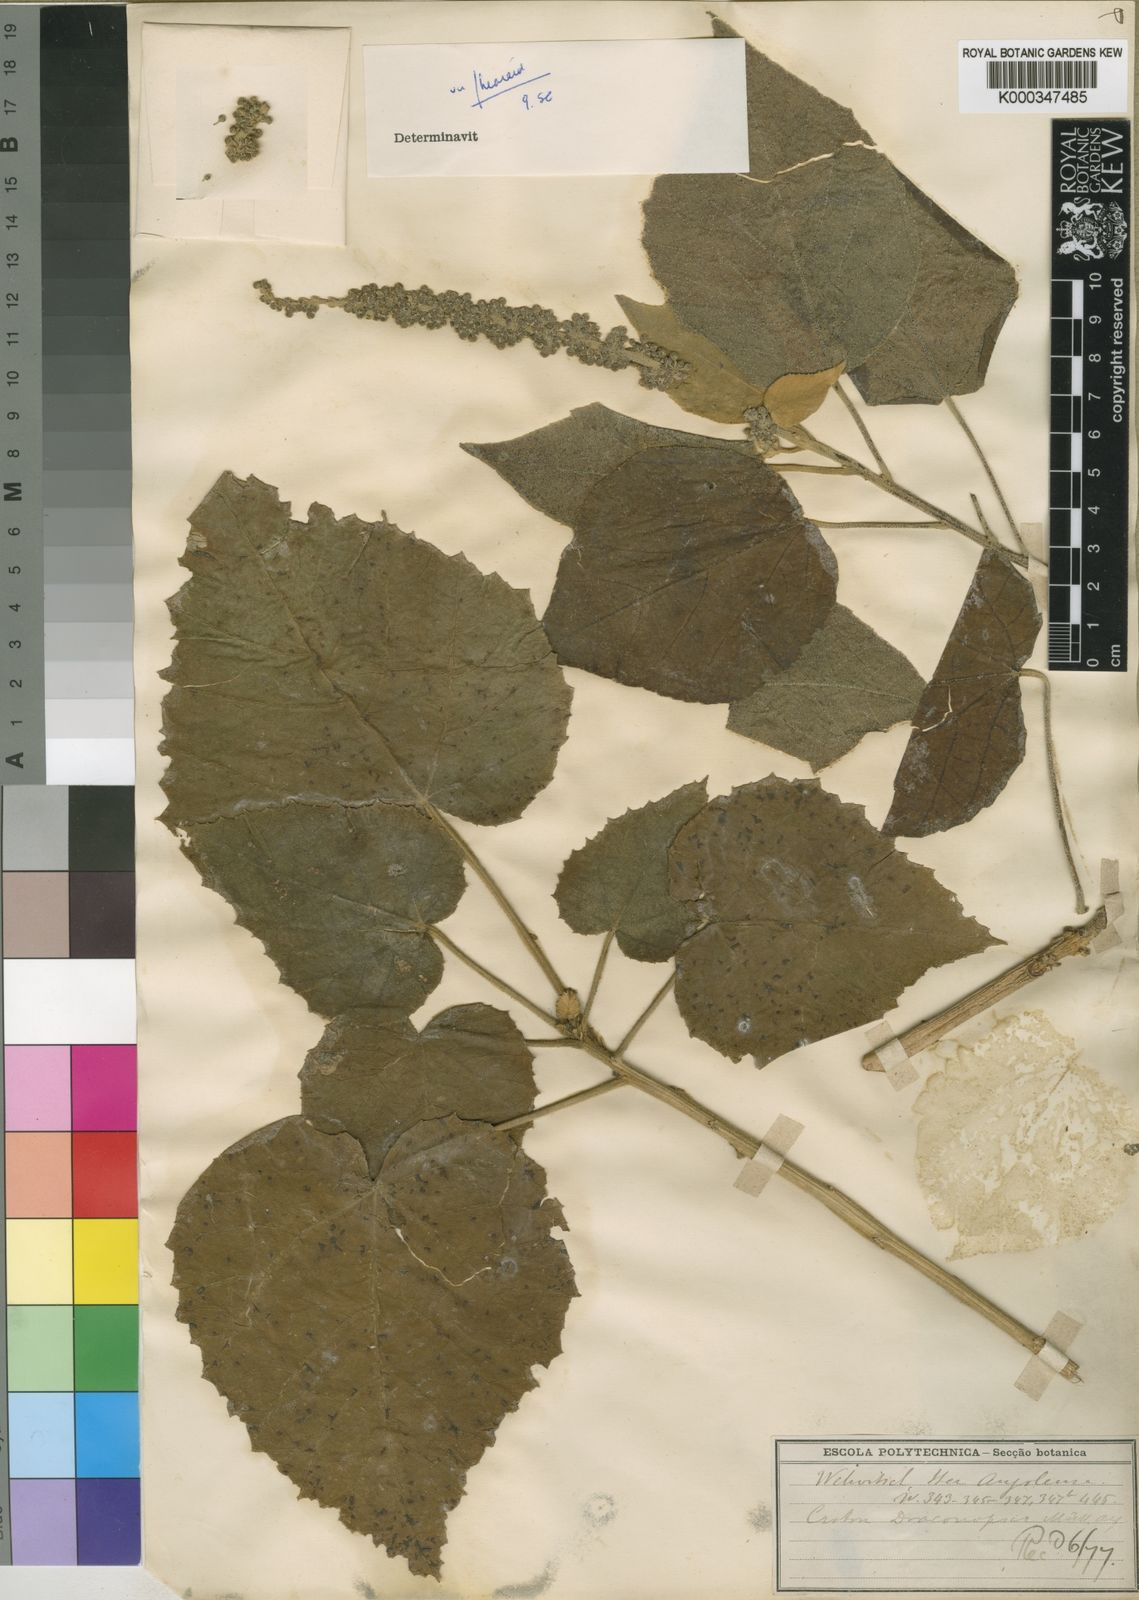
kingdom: Plantae
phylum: Tracheophyta
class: Magnoliopsida
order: Malpighiales
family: Euphorbiaceae
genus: Croton
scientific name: Croton
